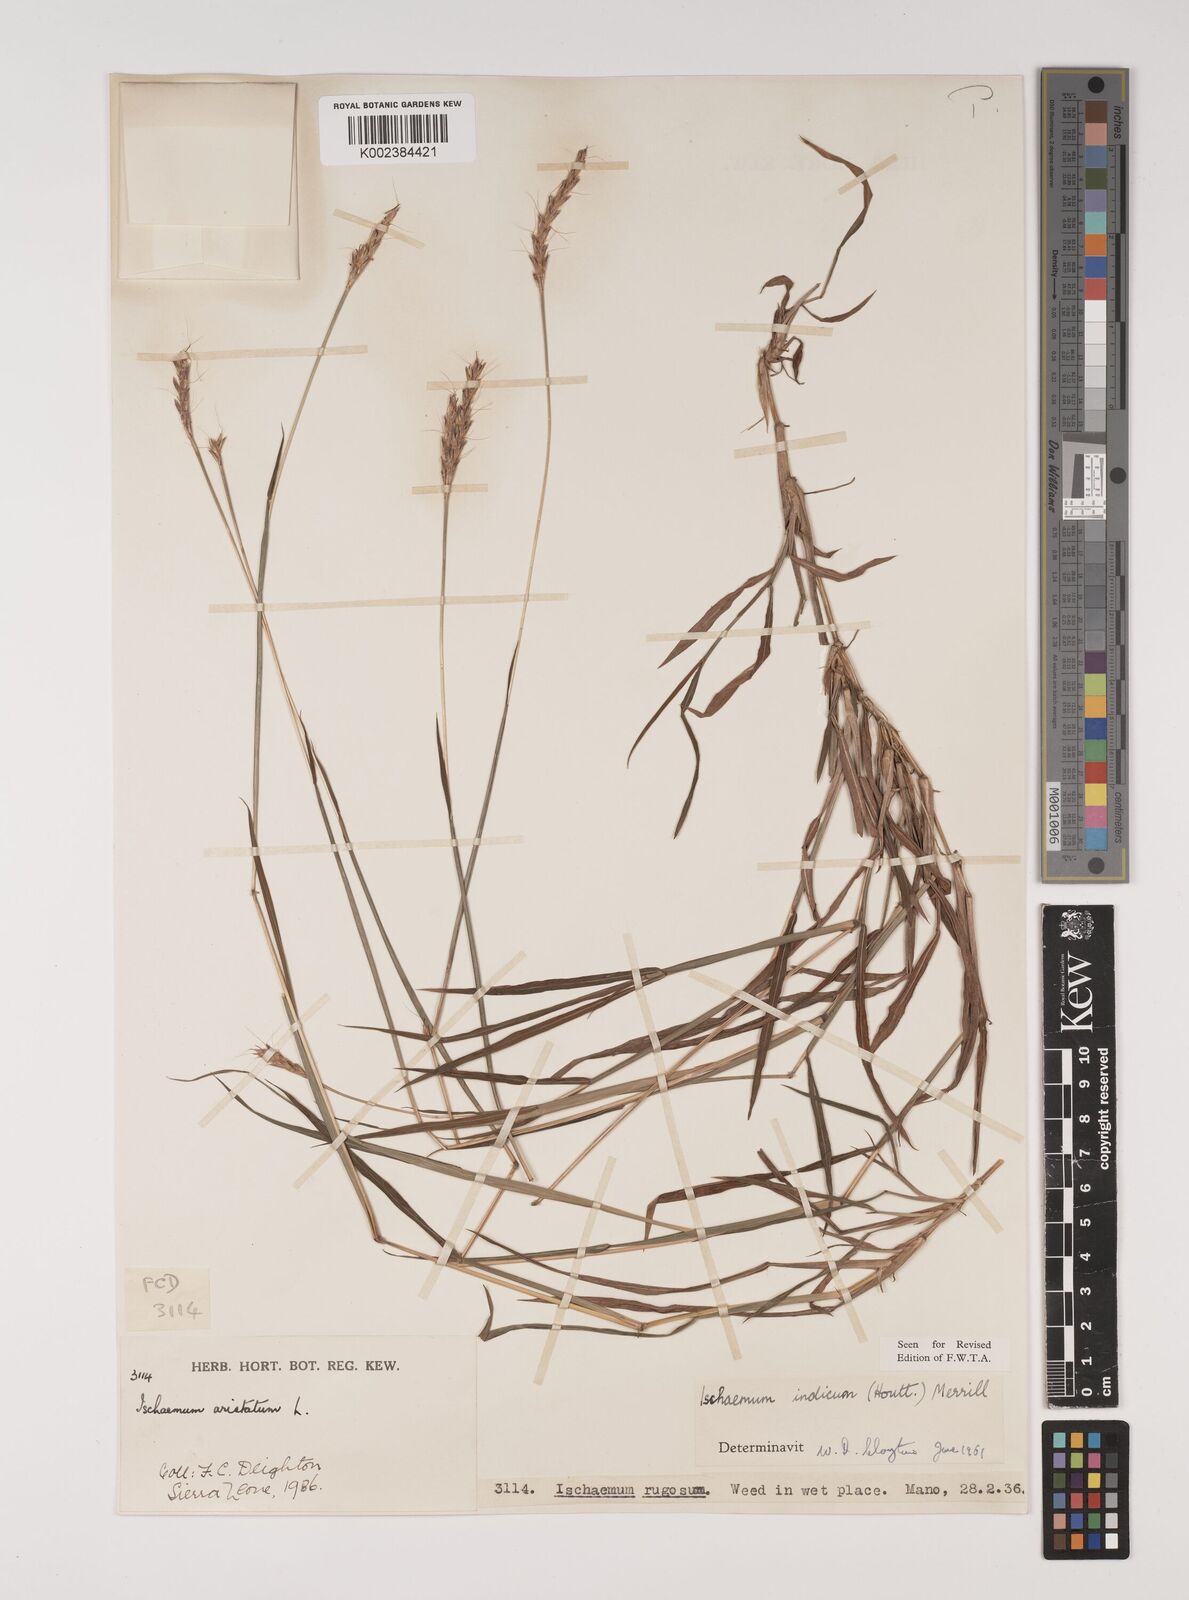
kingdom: Plantae
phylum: Tracheophyta
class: Liliopsida
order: Poales
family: Poaceae
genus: Polytrias
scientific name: Polytrias indica
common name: Indian murainagrass
